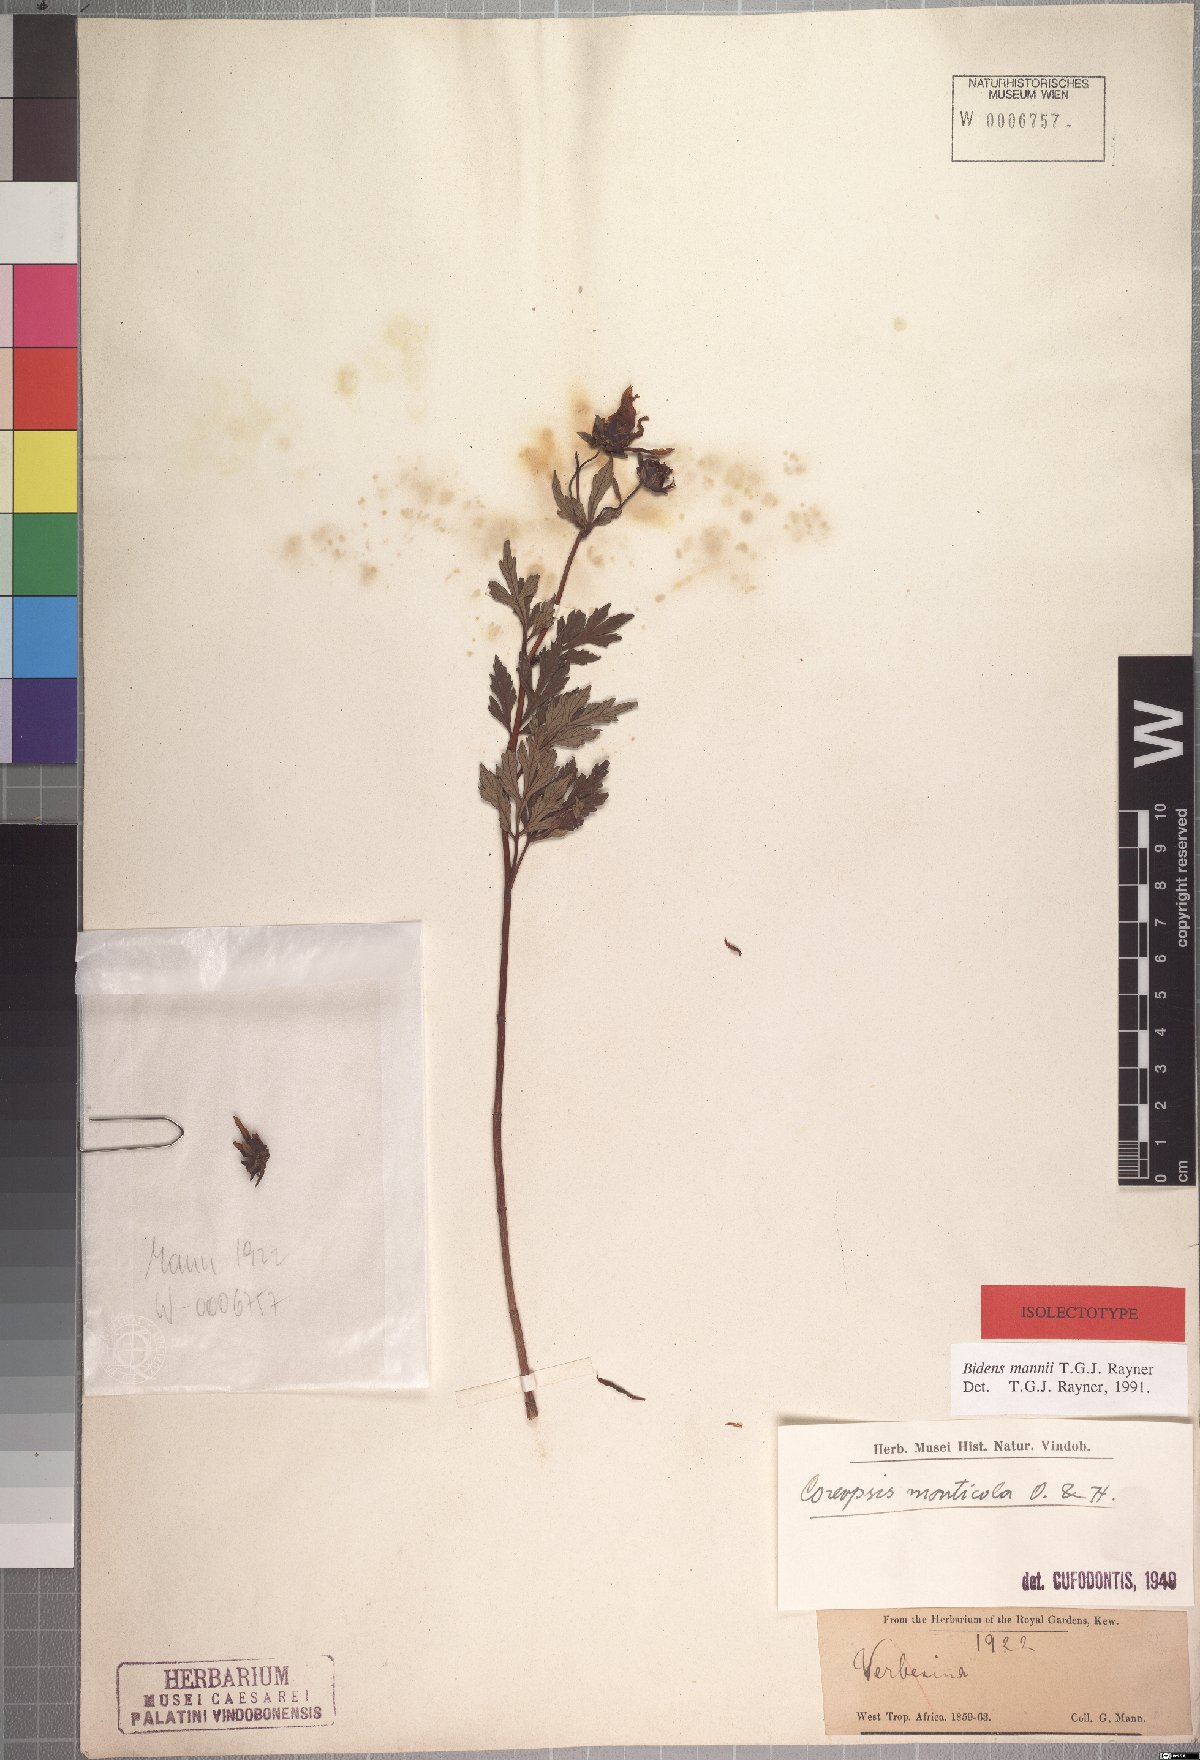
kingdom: Plantae
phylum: Tracheophyta
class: Magnoliopsida
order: Asterales
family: Asteraceae
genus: Bidens
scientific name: Bidens mannii
